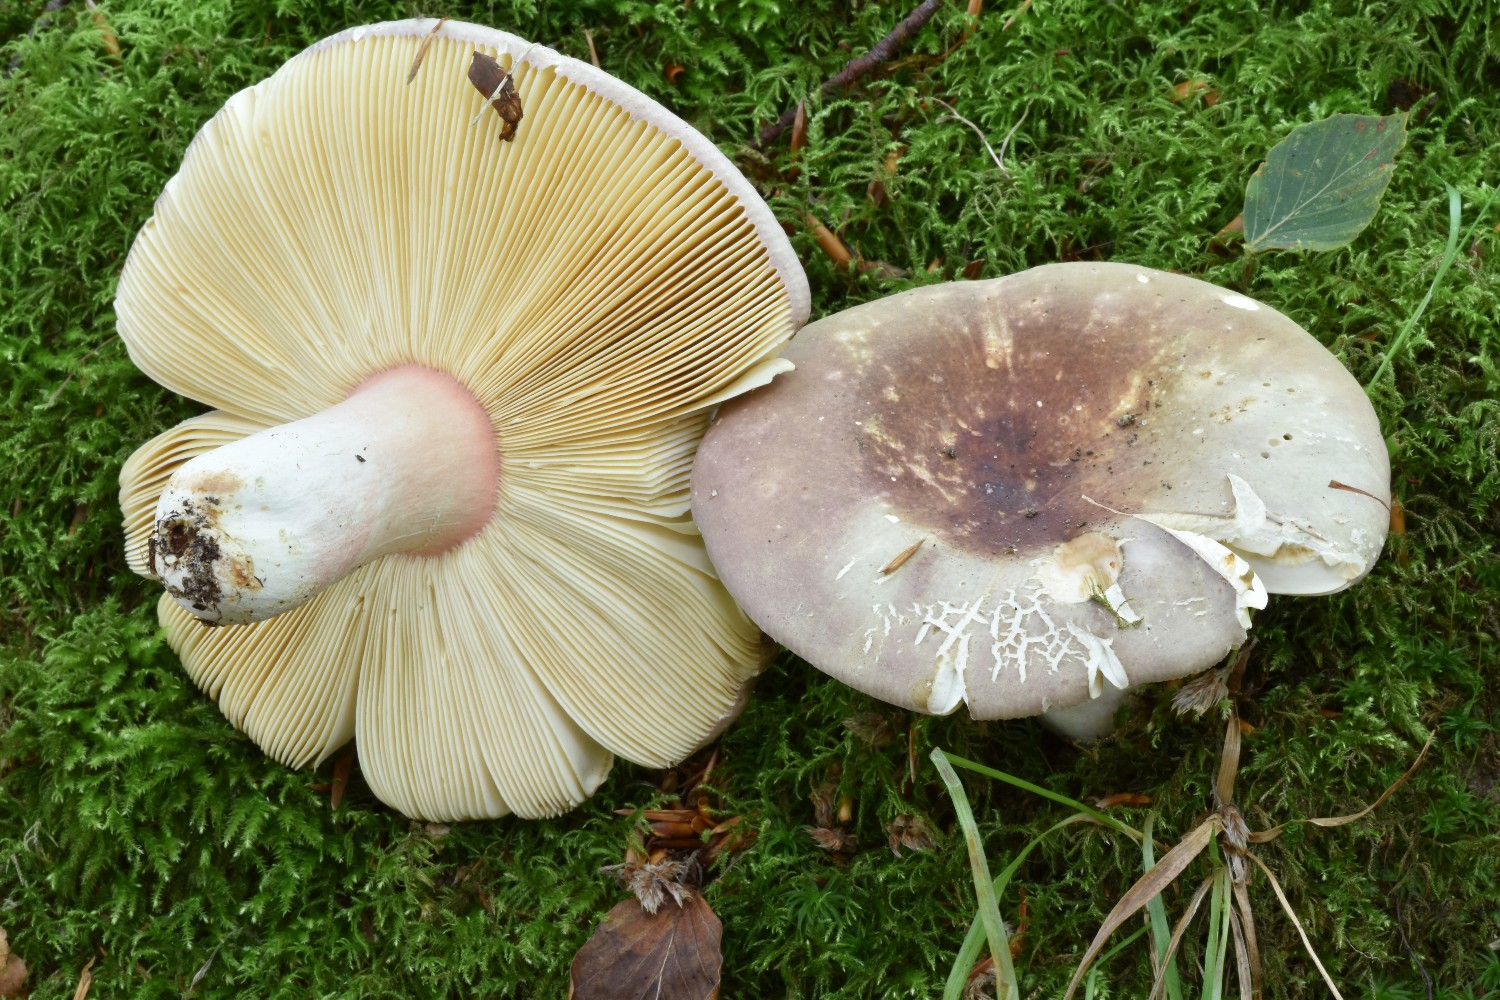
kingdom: Fungi
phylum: Basidiomycota
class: Agaricomycetes
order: Russulales
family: Russulaceae
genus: Russula
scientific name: Russula olivacea
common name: stor skørhat
